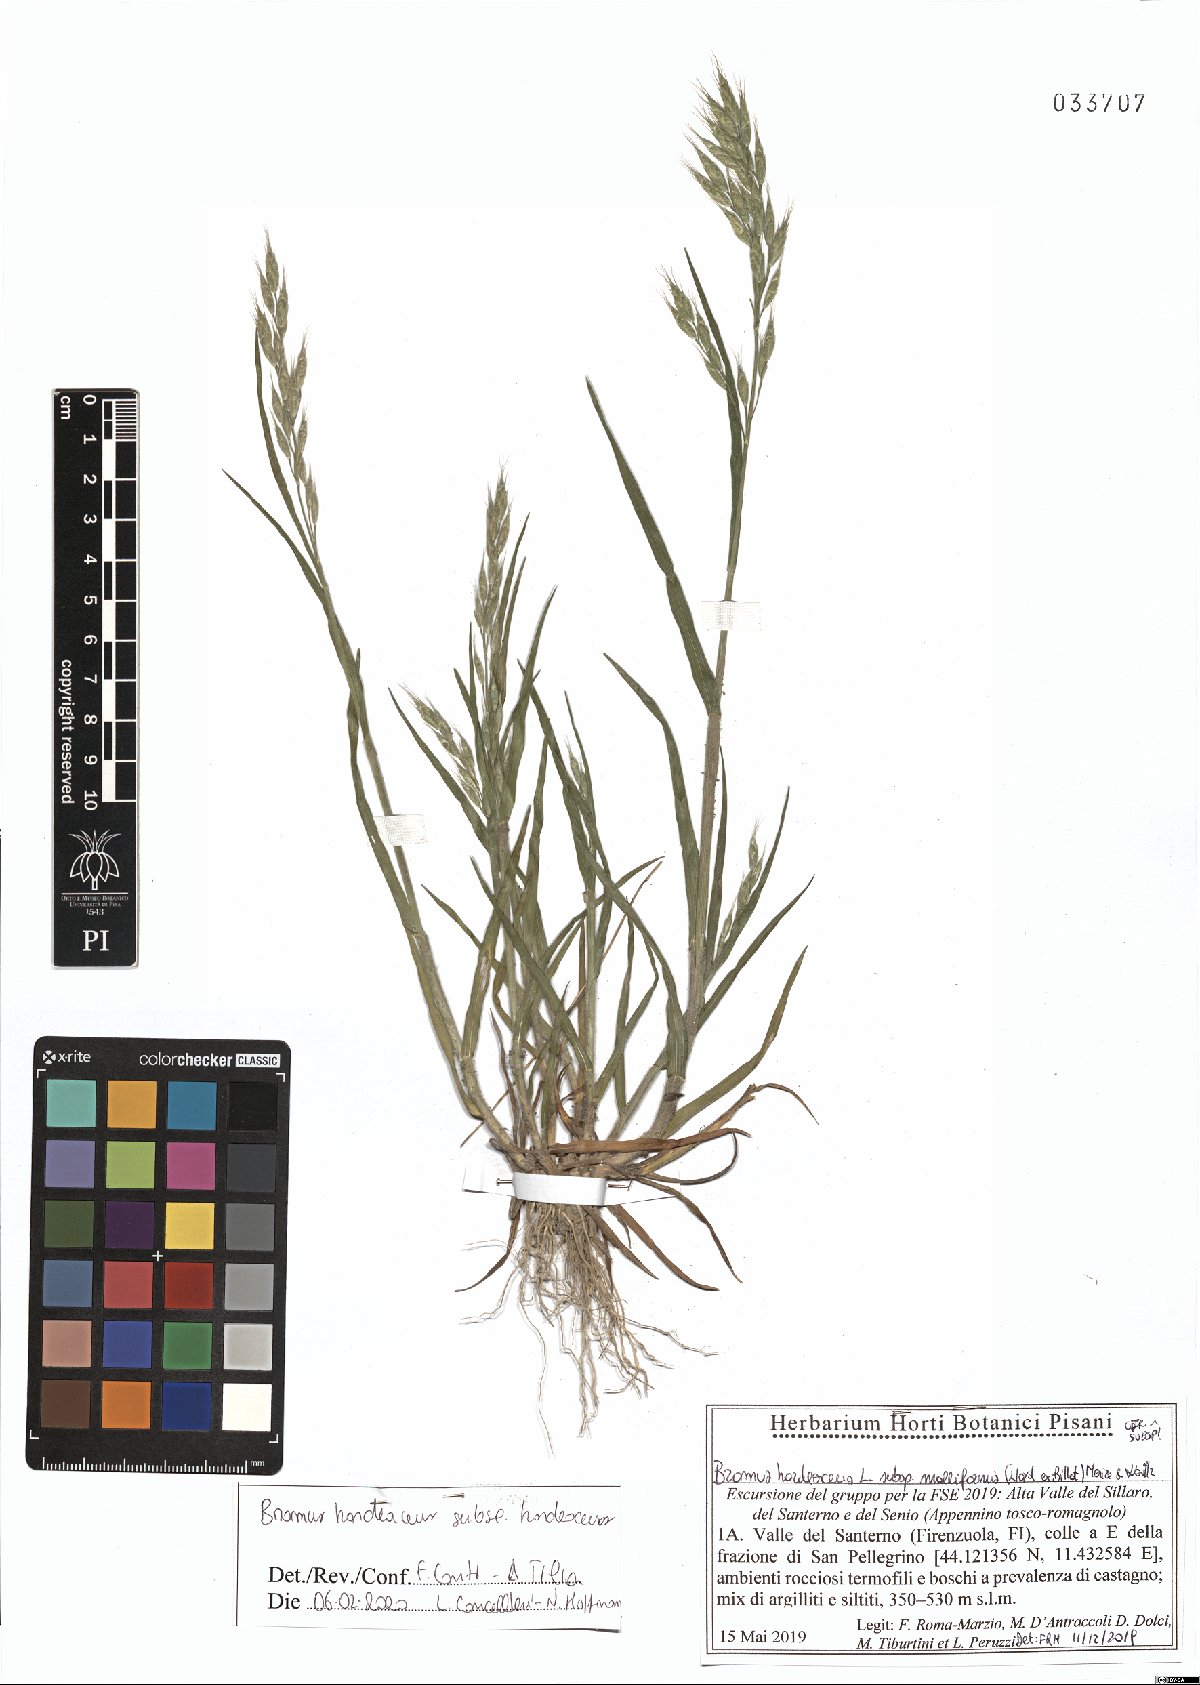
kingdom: Plantae
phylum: Tracheophyta
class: Liliopsida
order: Poales
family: Poaceae
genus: Bromus
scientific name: Bromus hordeaceus
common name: Soft brome
